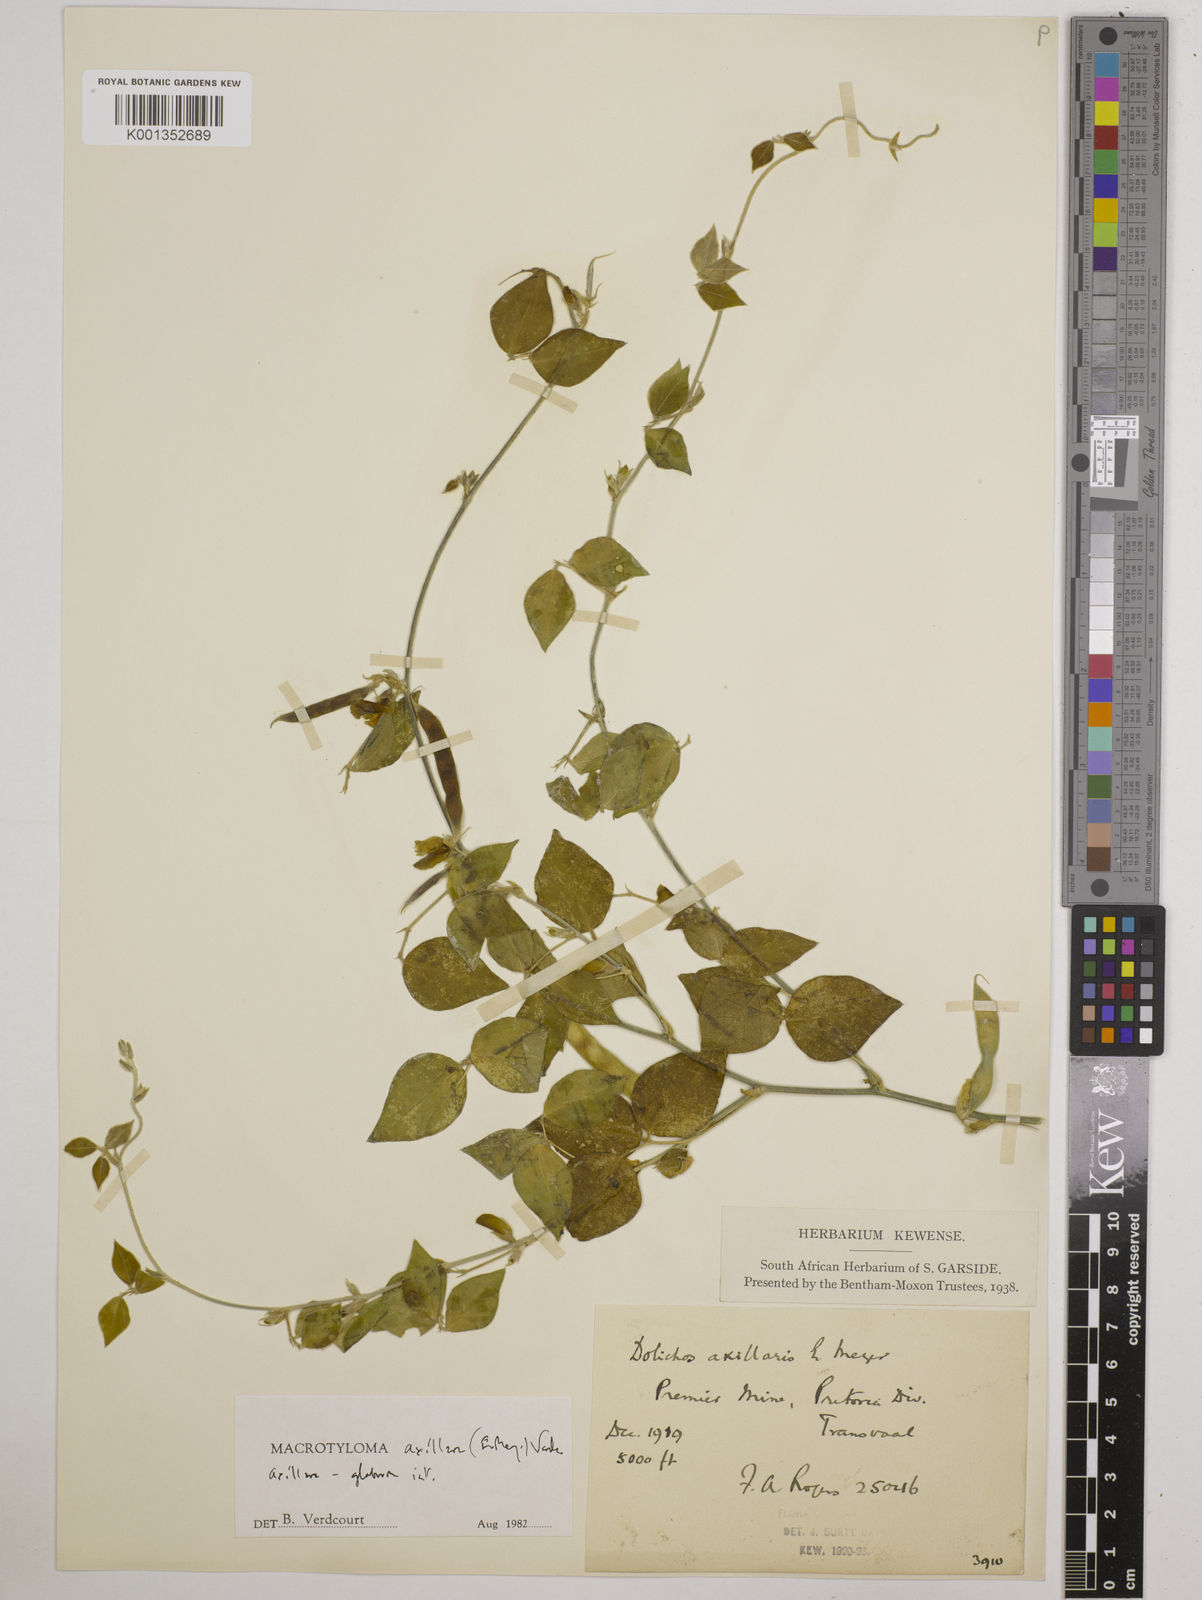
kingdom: Plantae
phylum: Tracheophyta
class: Magnoliopsida
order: Fabales
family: Fabaceae
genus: Macrotyloma
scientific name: Macrotyloma
